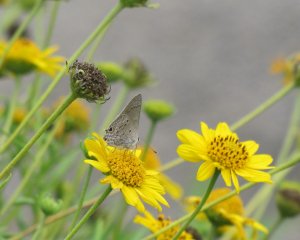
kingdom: Animalia
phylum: Arthropoda
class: Insecta
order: Lepidoptera
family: Lycaenidae
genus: Callicista
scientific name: Callicista columella
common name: Mallow Scrub-Hairstreak
